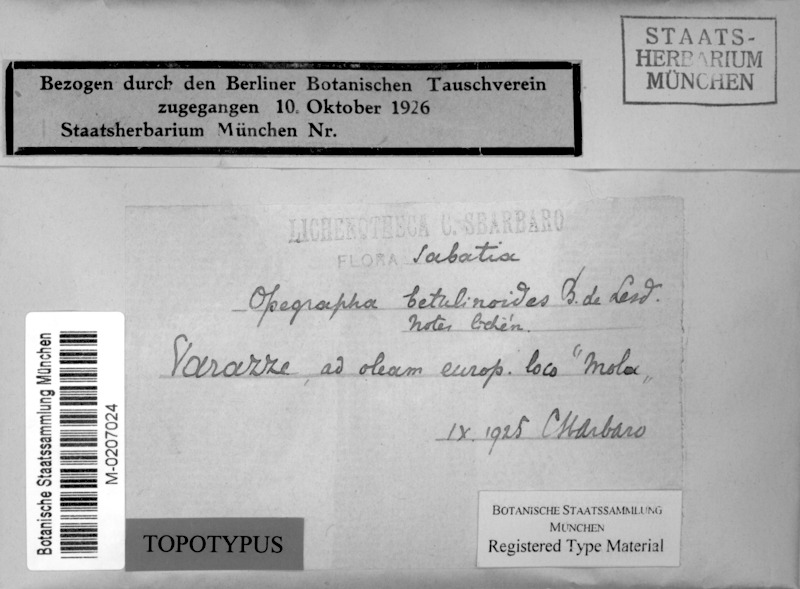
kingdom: Fungi
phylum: Ascomycota
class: Arthoniomycetes
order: Arthoniales
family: Opegraphaceae
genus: Opegrapha
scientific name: Opegrapha celtidicola
